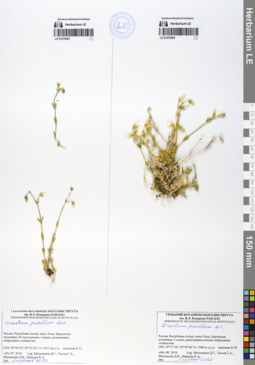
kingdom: Plantae
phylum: Tracheophyta
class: Magnoliopsida
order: Caryophyllales
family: Caryophyllaceae
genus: Cerastium
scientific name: Cerastium pusillum
